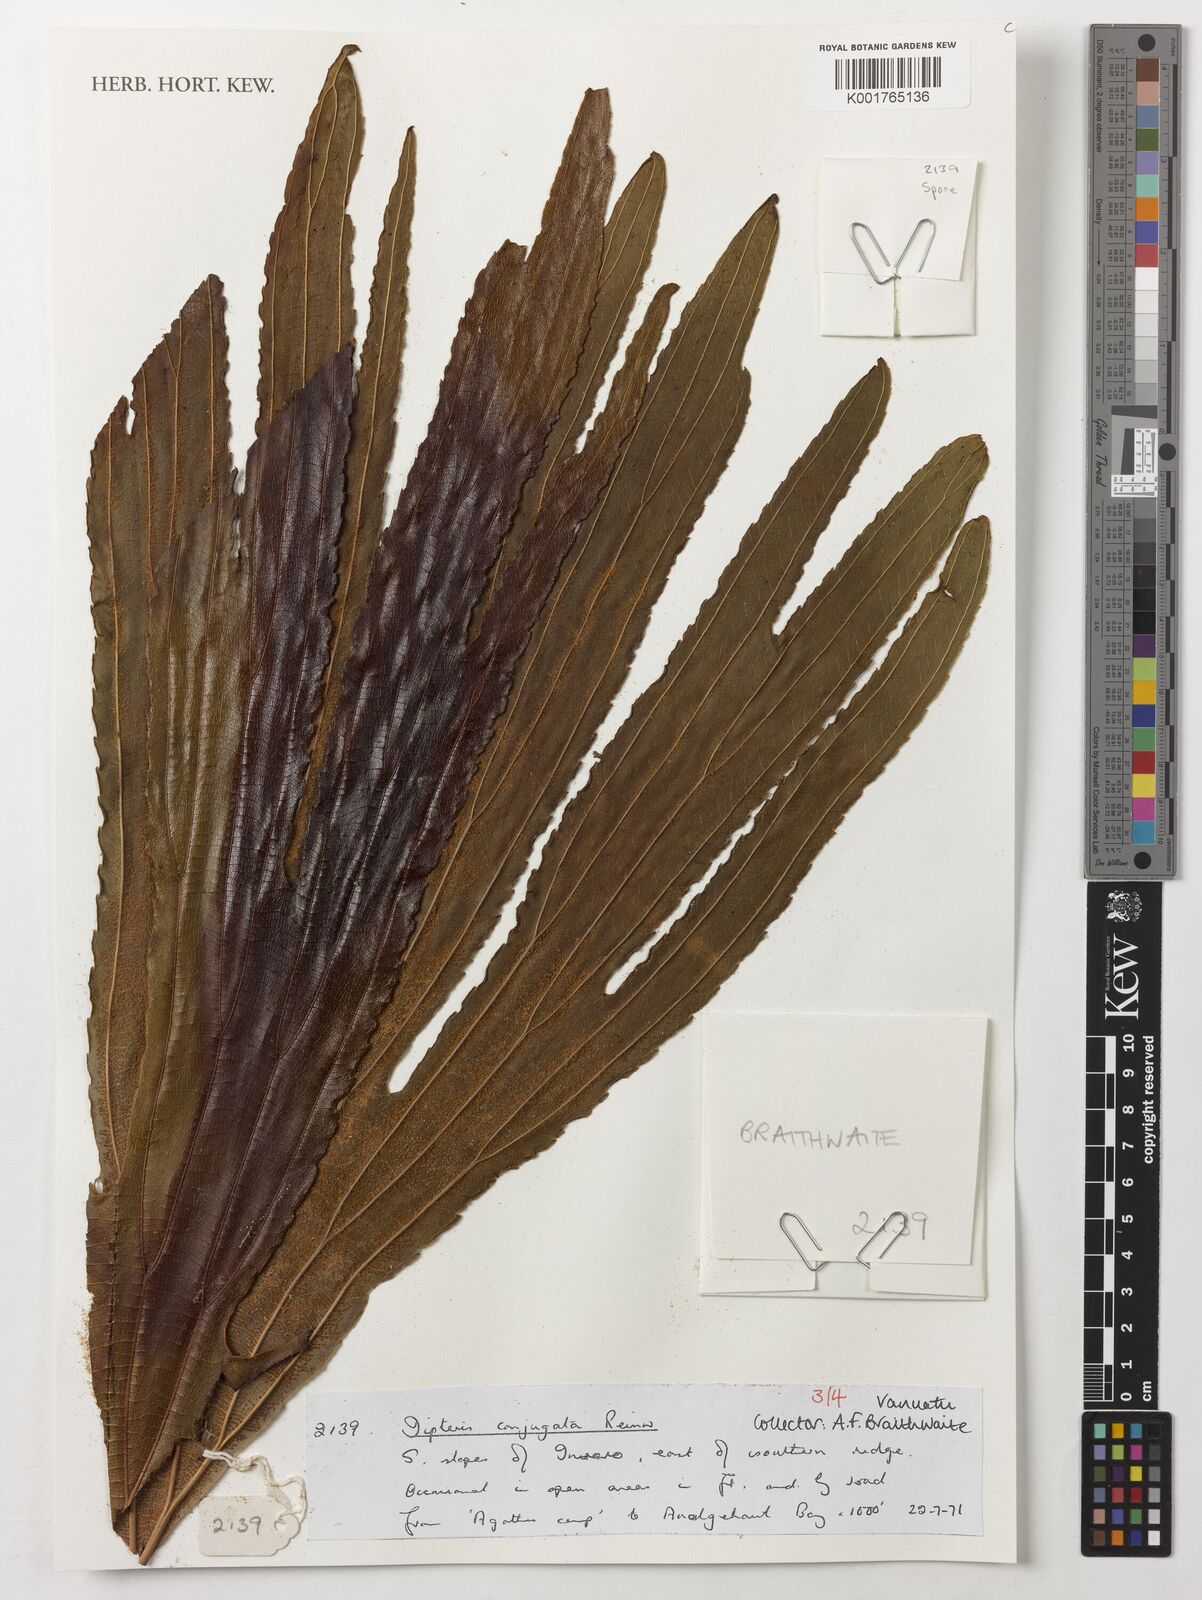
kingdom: Plantae
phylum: Tracheophyta
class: Polypodiopsida
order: Gleicheniales
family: Dipteridaceae
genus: Dipteris
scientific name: Dipteris conjugata
